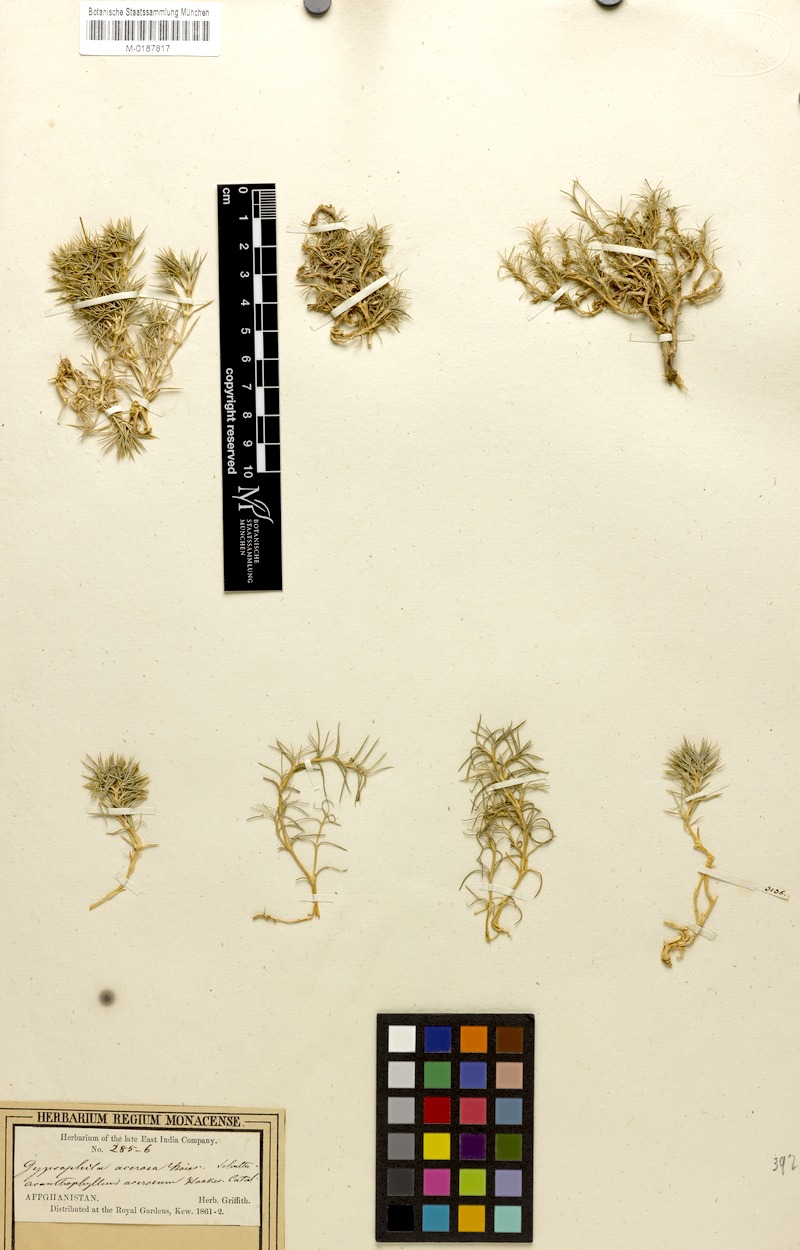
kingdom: Plantae
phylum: Tracheophyta
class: Magnoliopsida
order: Caryophyllales
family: Caryophyllaceae
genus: Acanthophyllum
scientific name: Acanthophyllum andarabicum
